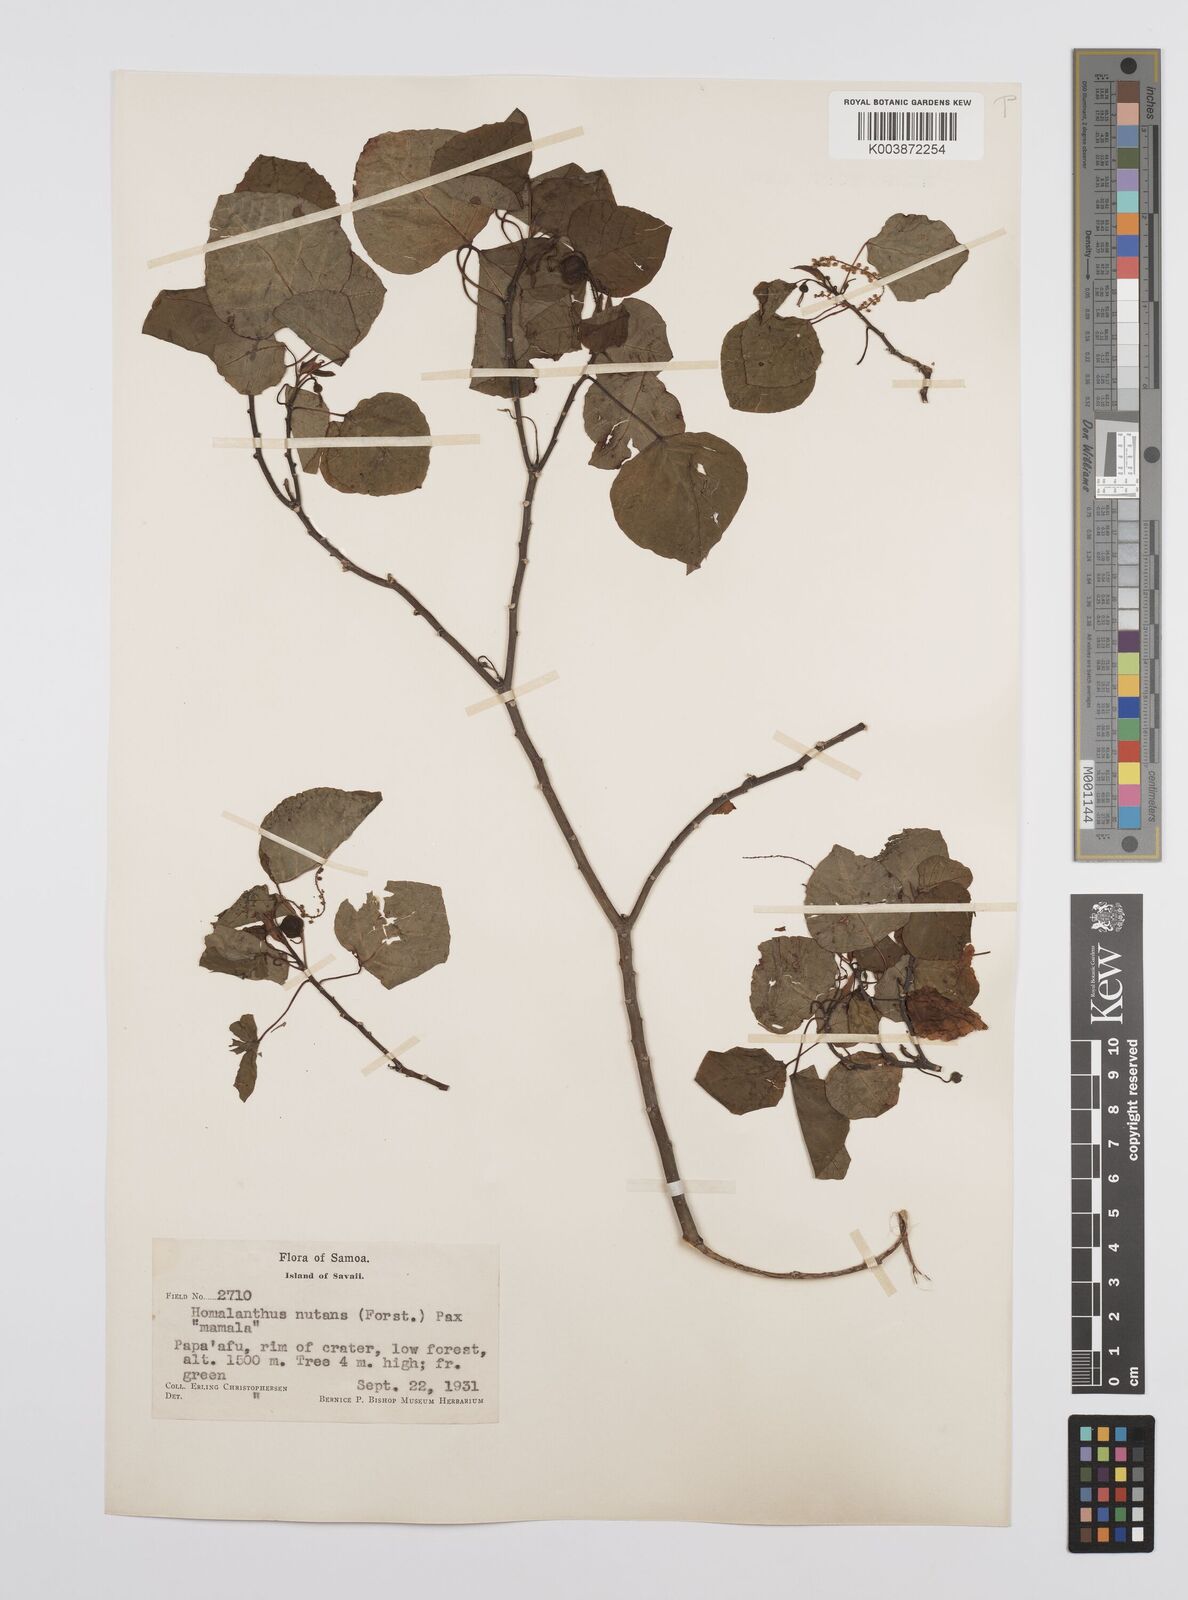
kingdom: Plantae
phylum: Tracheophyta
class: Magnoliopsida
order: Malpighiales
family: Euphorbiaceae
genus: Homalanthus
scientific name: Homalanthus nutans
